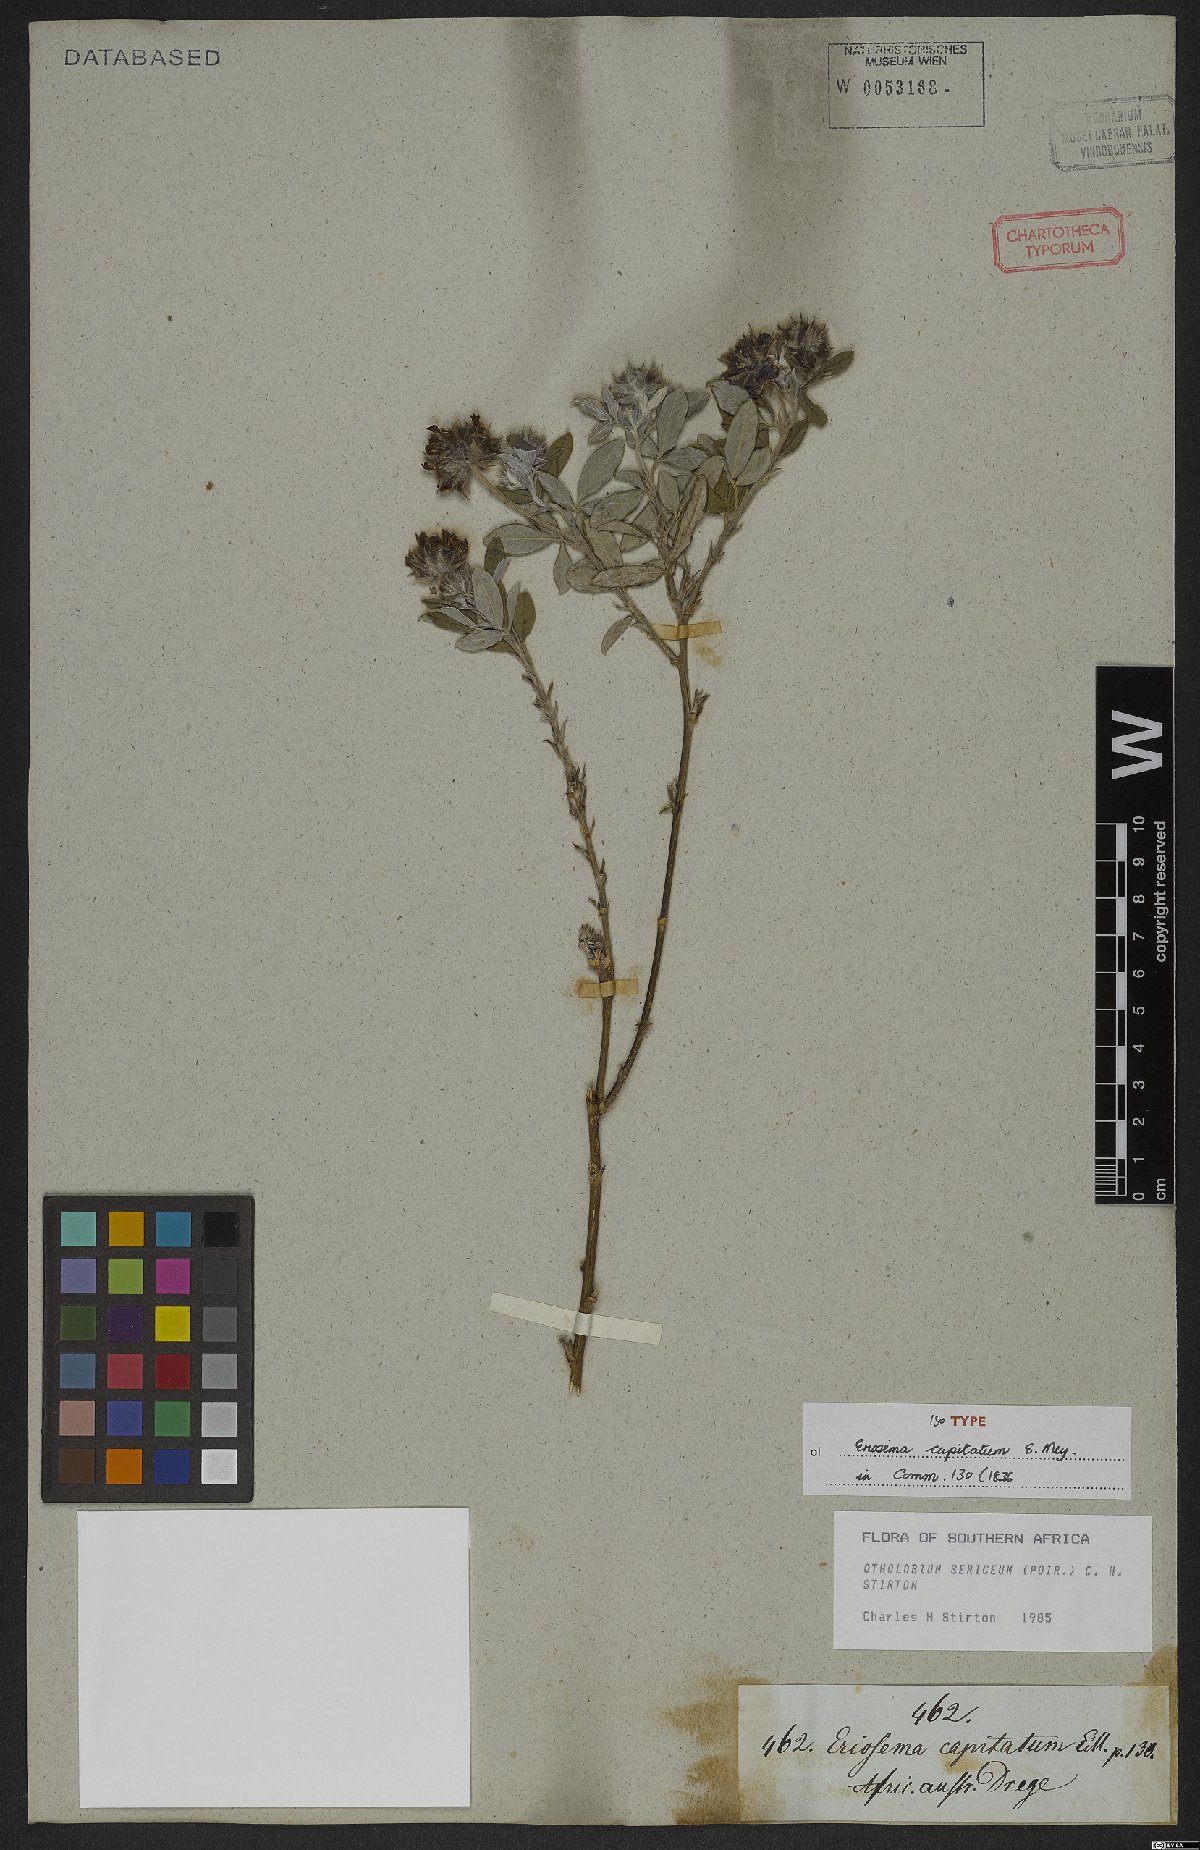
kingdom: Plantae
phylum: Tracheophyta
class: Magnoliopsida
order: Fabales
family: Fabaceae
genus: Psoralea
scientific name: Psoralea sericea
